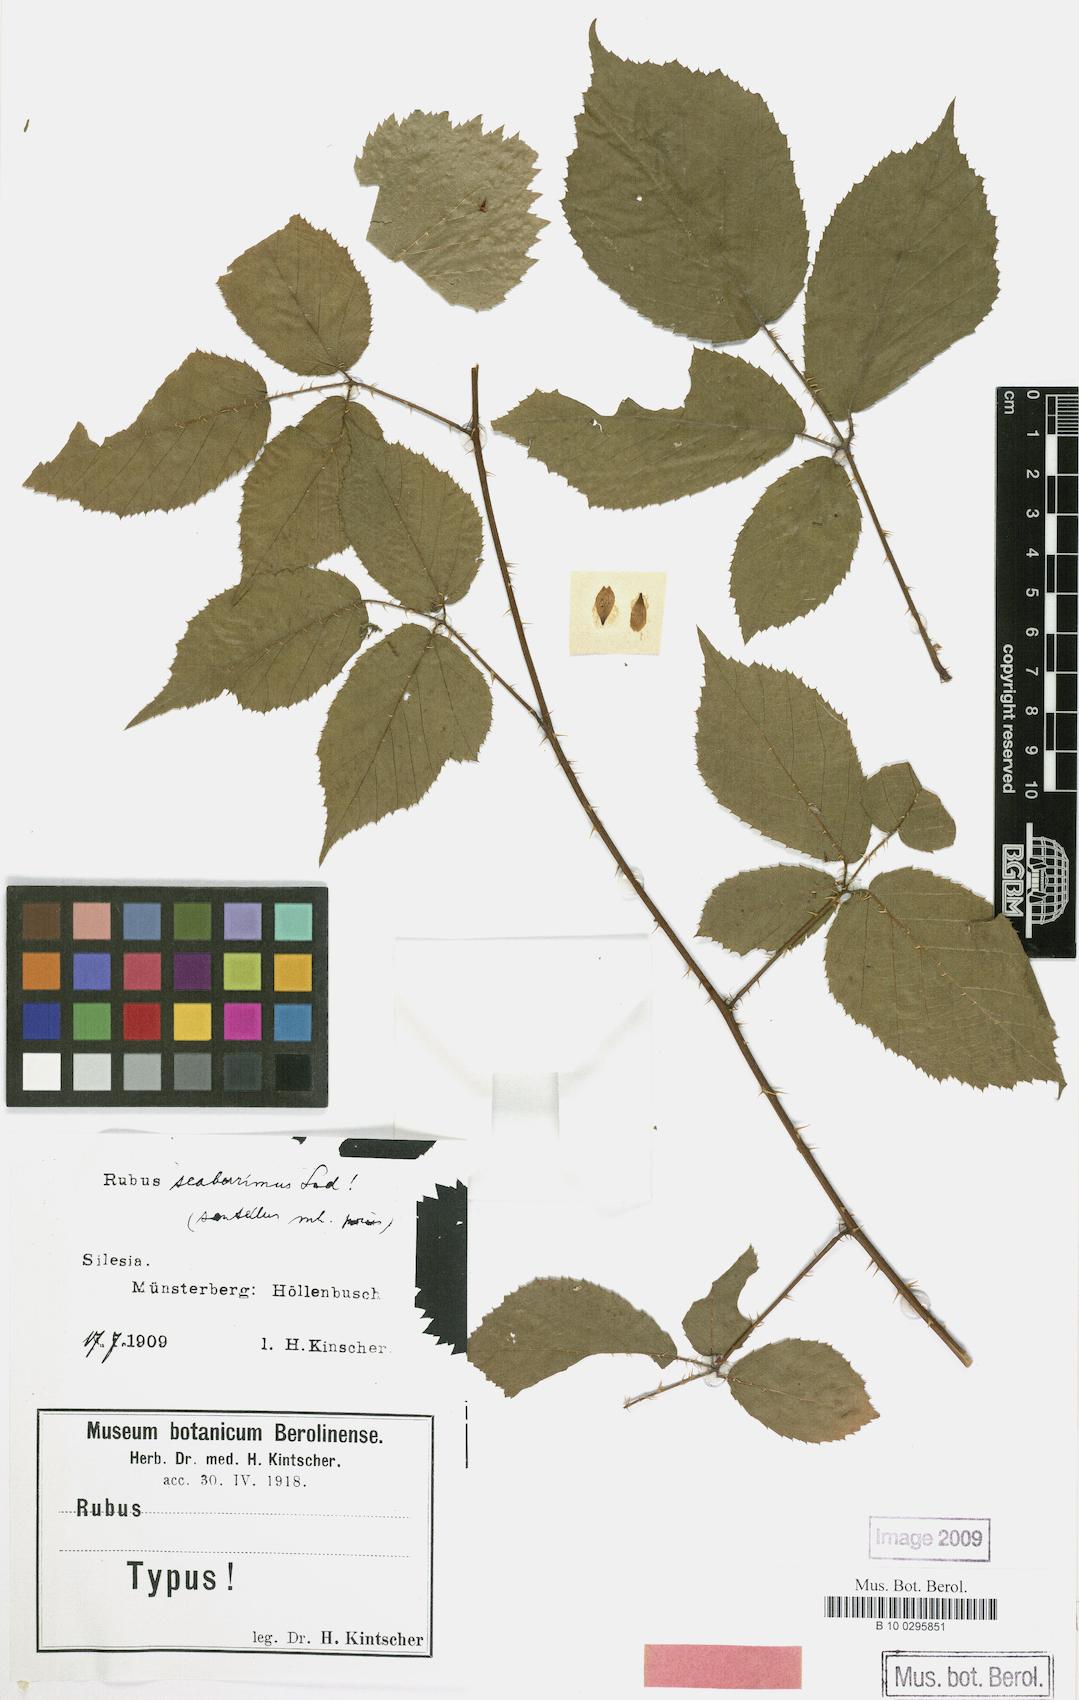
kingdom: Plantae
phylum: Tracheophyta
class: Magnoliopsida
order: Rosales
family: Rosaceae
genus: Rubus
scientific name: Rubus sentellus
